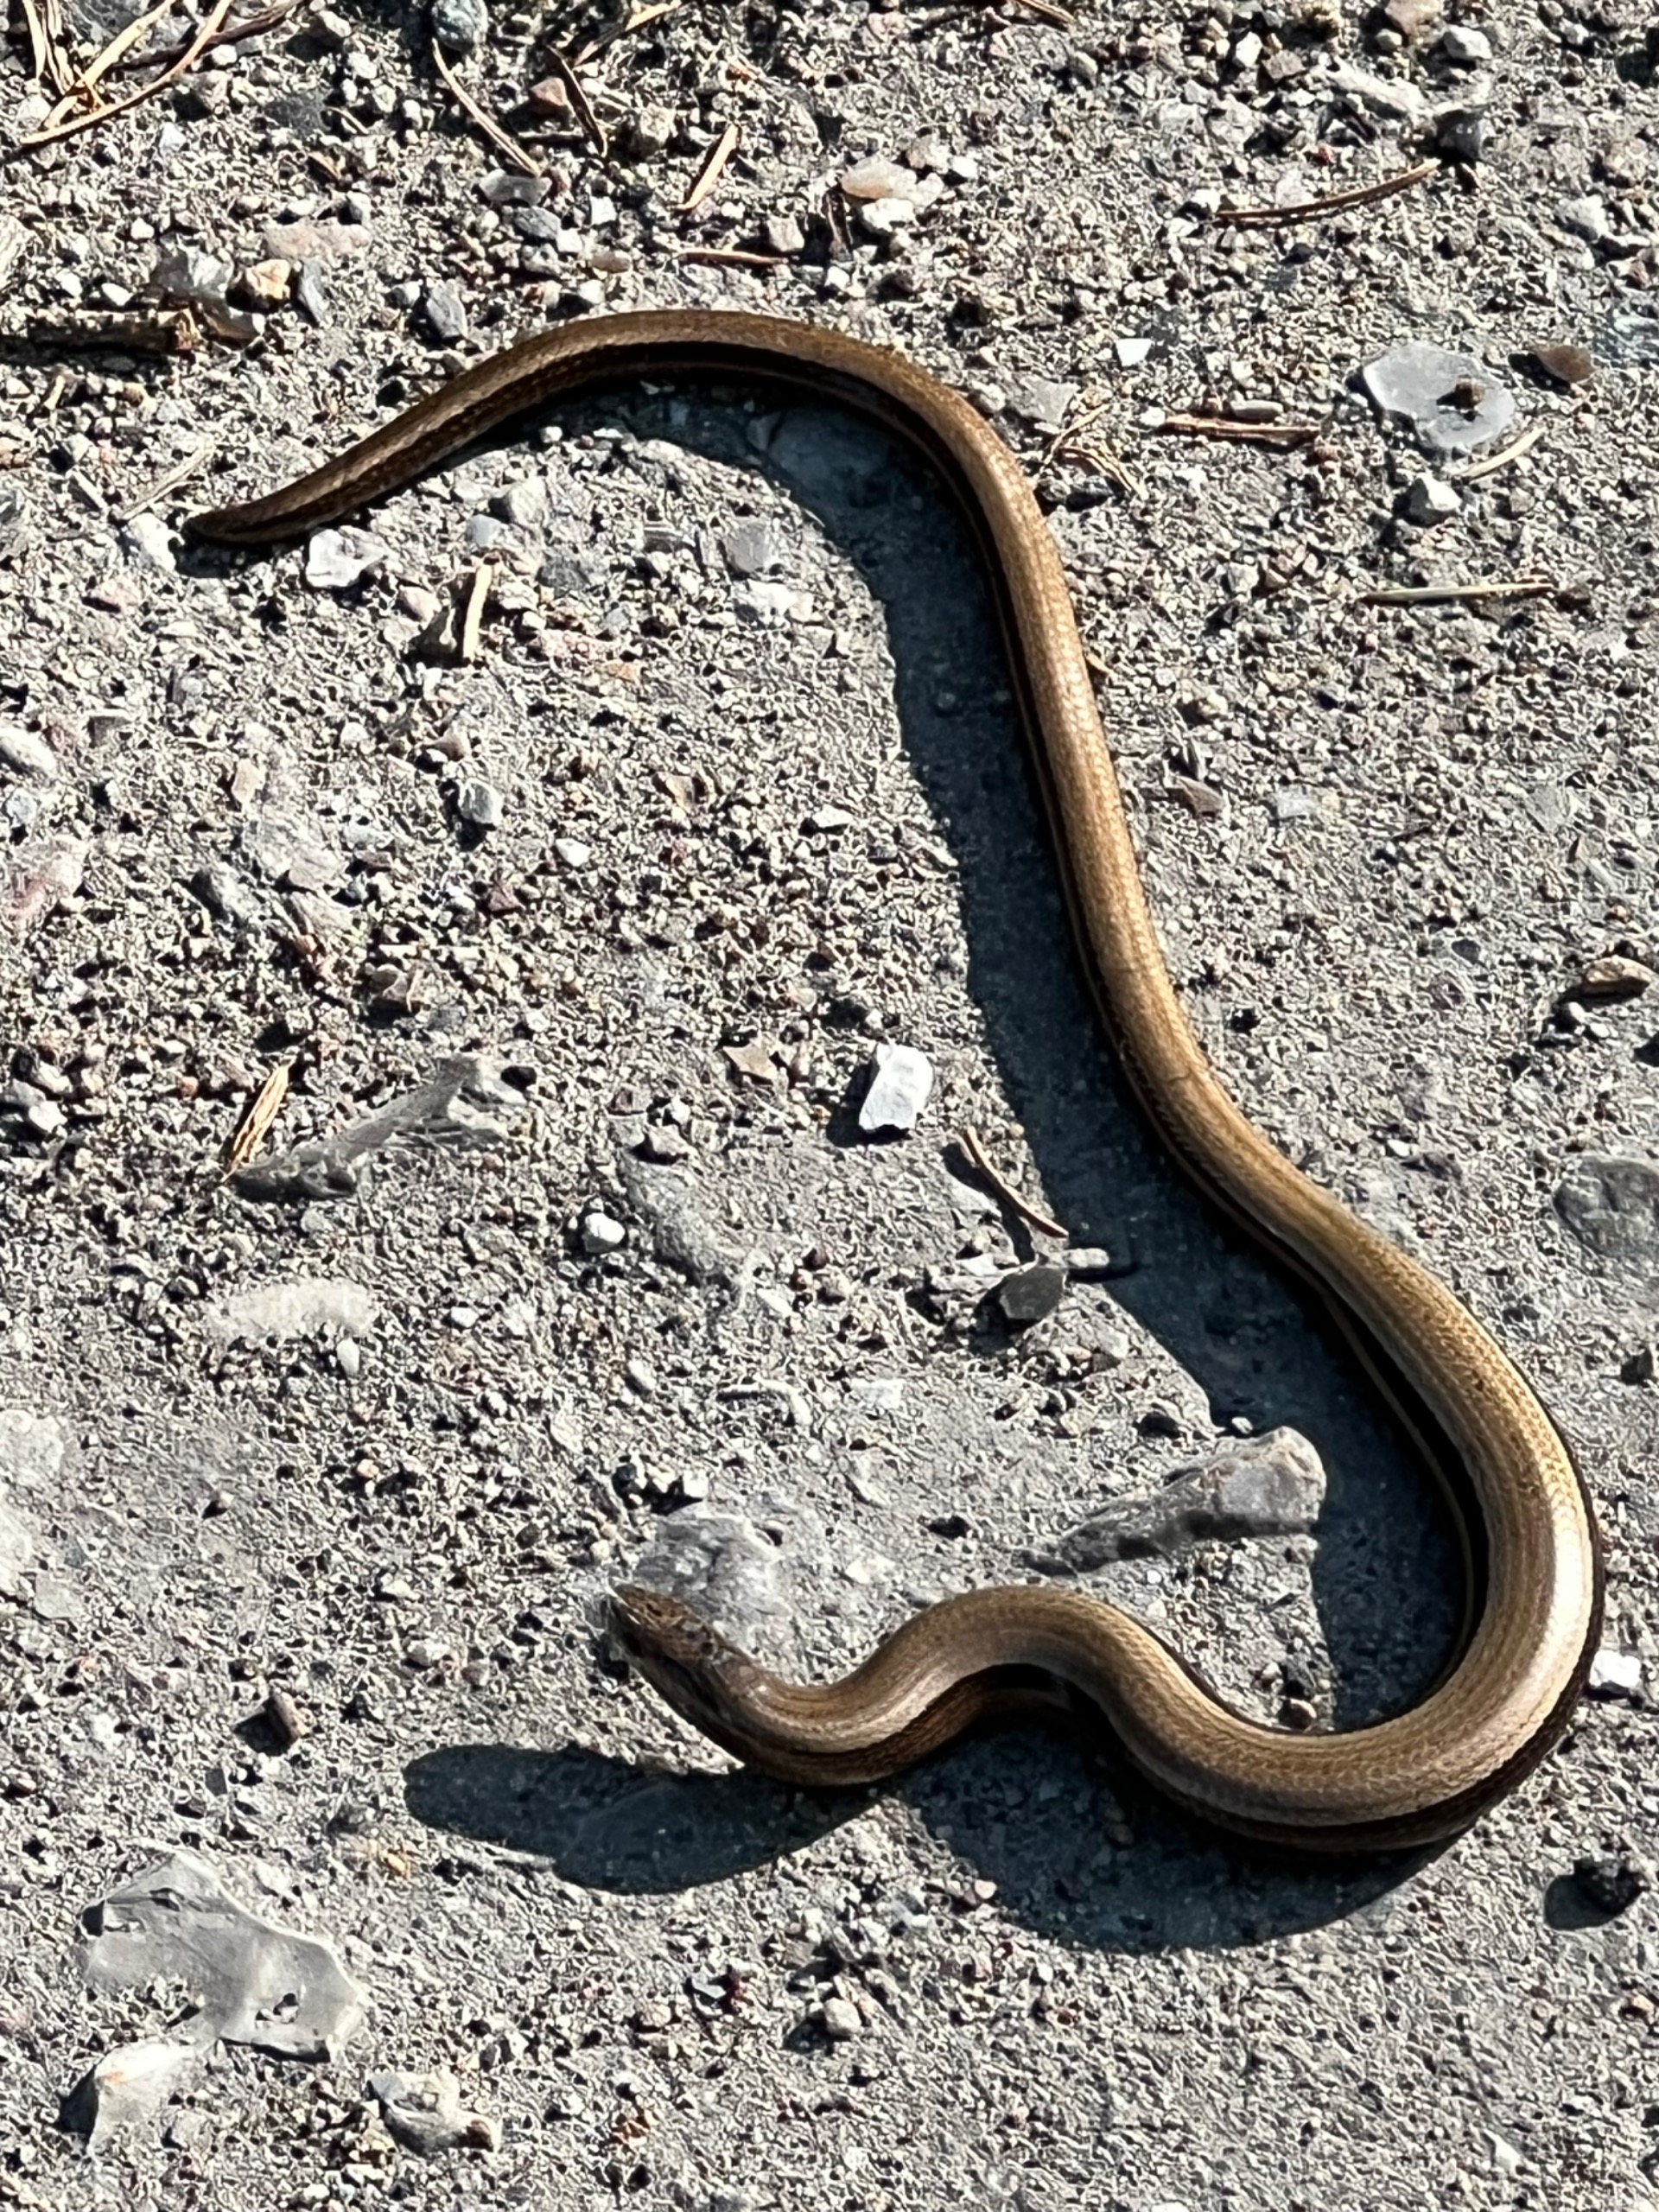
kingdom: Animalia
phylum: Chordata
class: Squamata
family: Anguidae
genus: Anguis
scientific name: Anguis fragilis
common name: Stålorm
